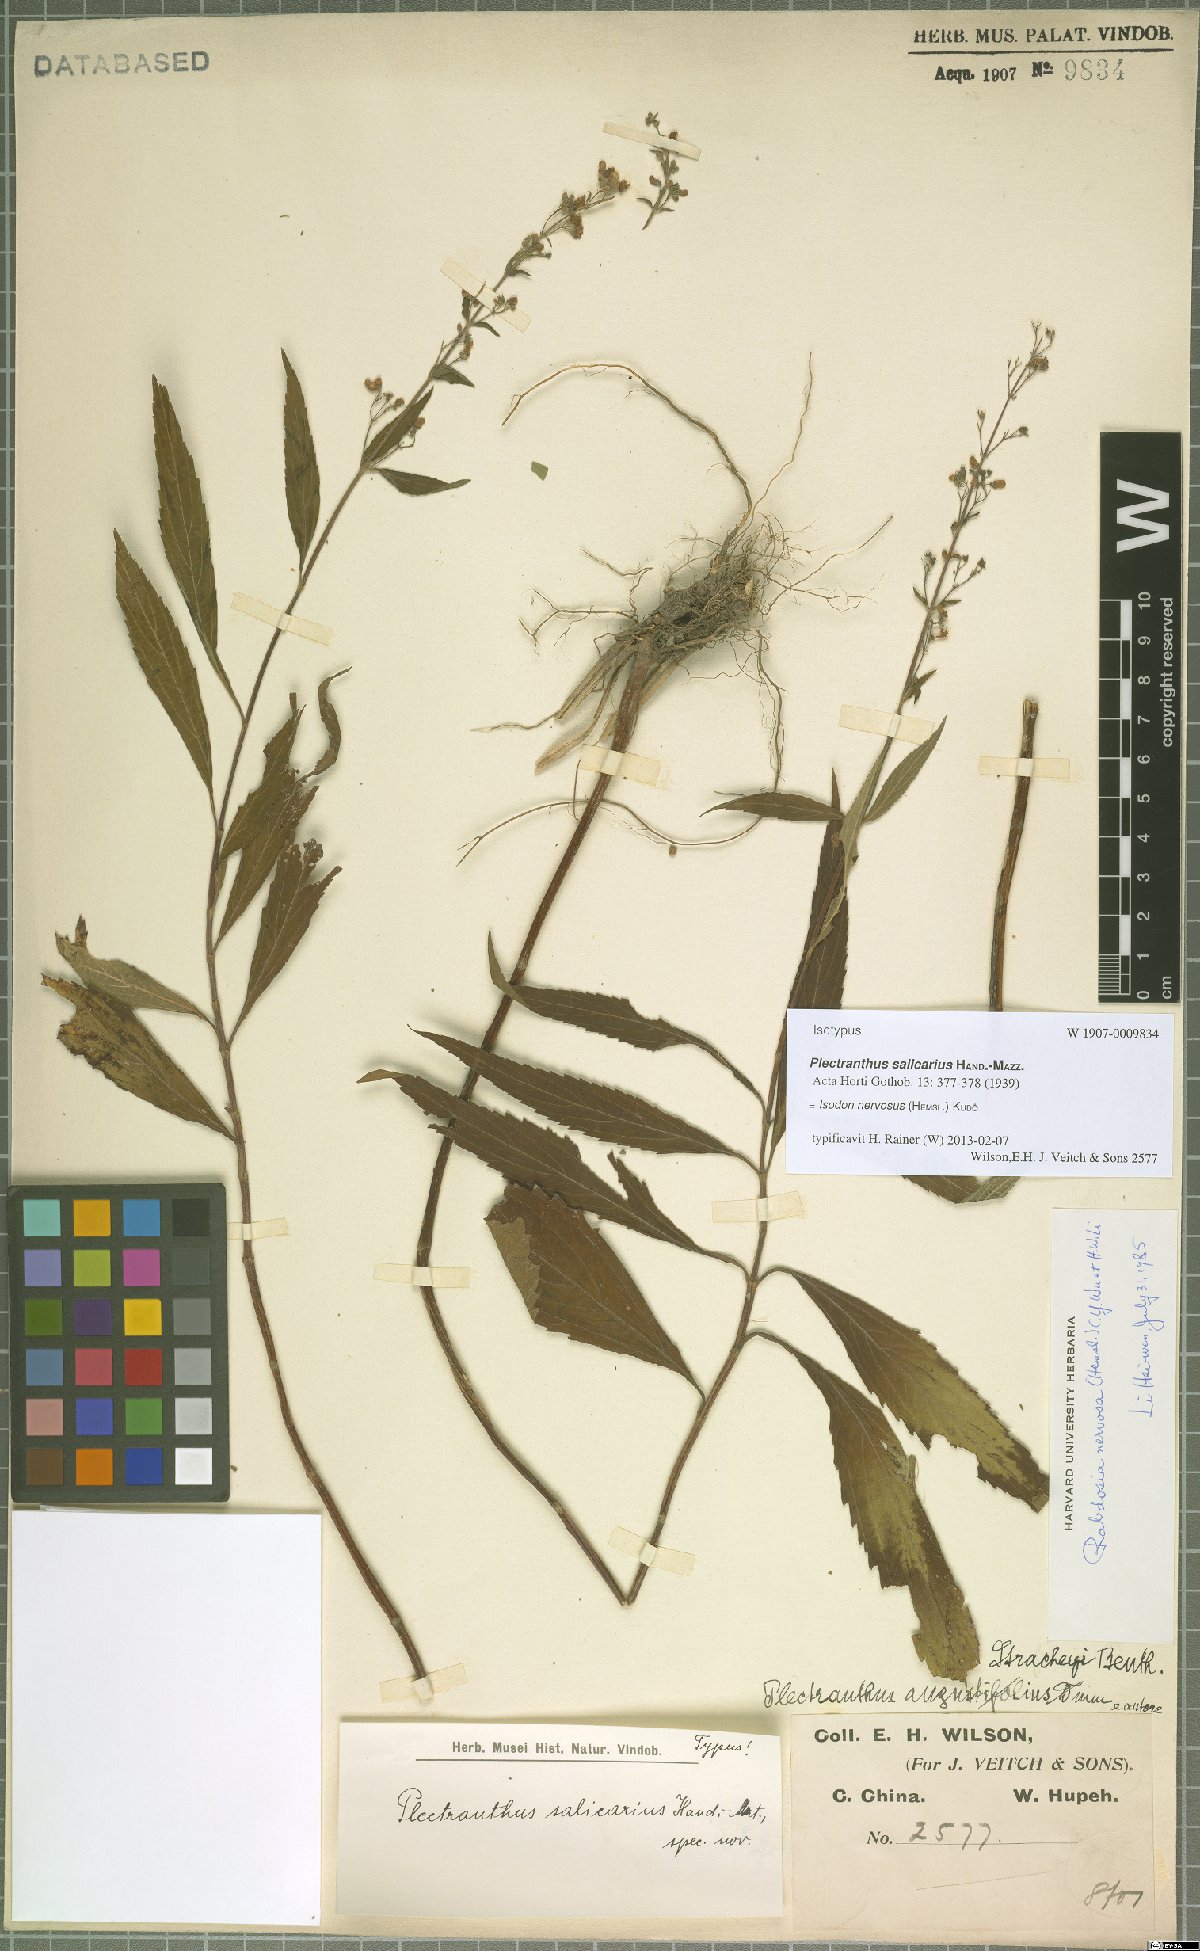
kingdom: Plantae
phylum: Tracheophyta
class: Magnoliopsida
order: Lamiales
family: Lamiaceae
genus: Isodon
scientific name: Isodon nervosus
